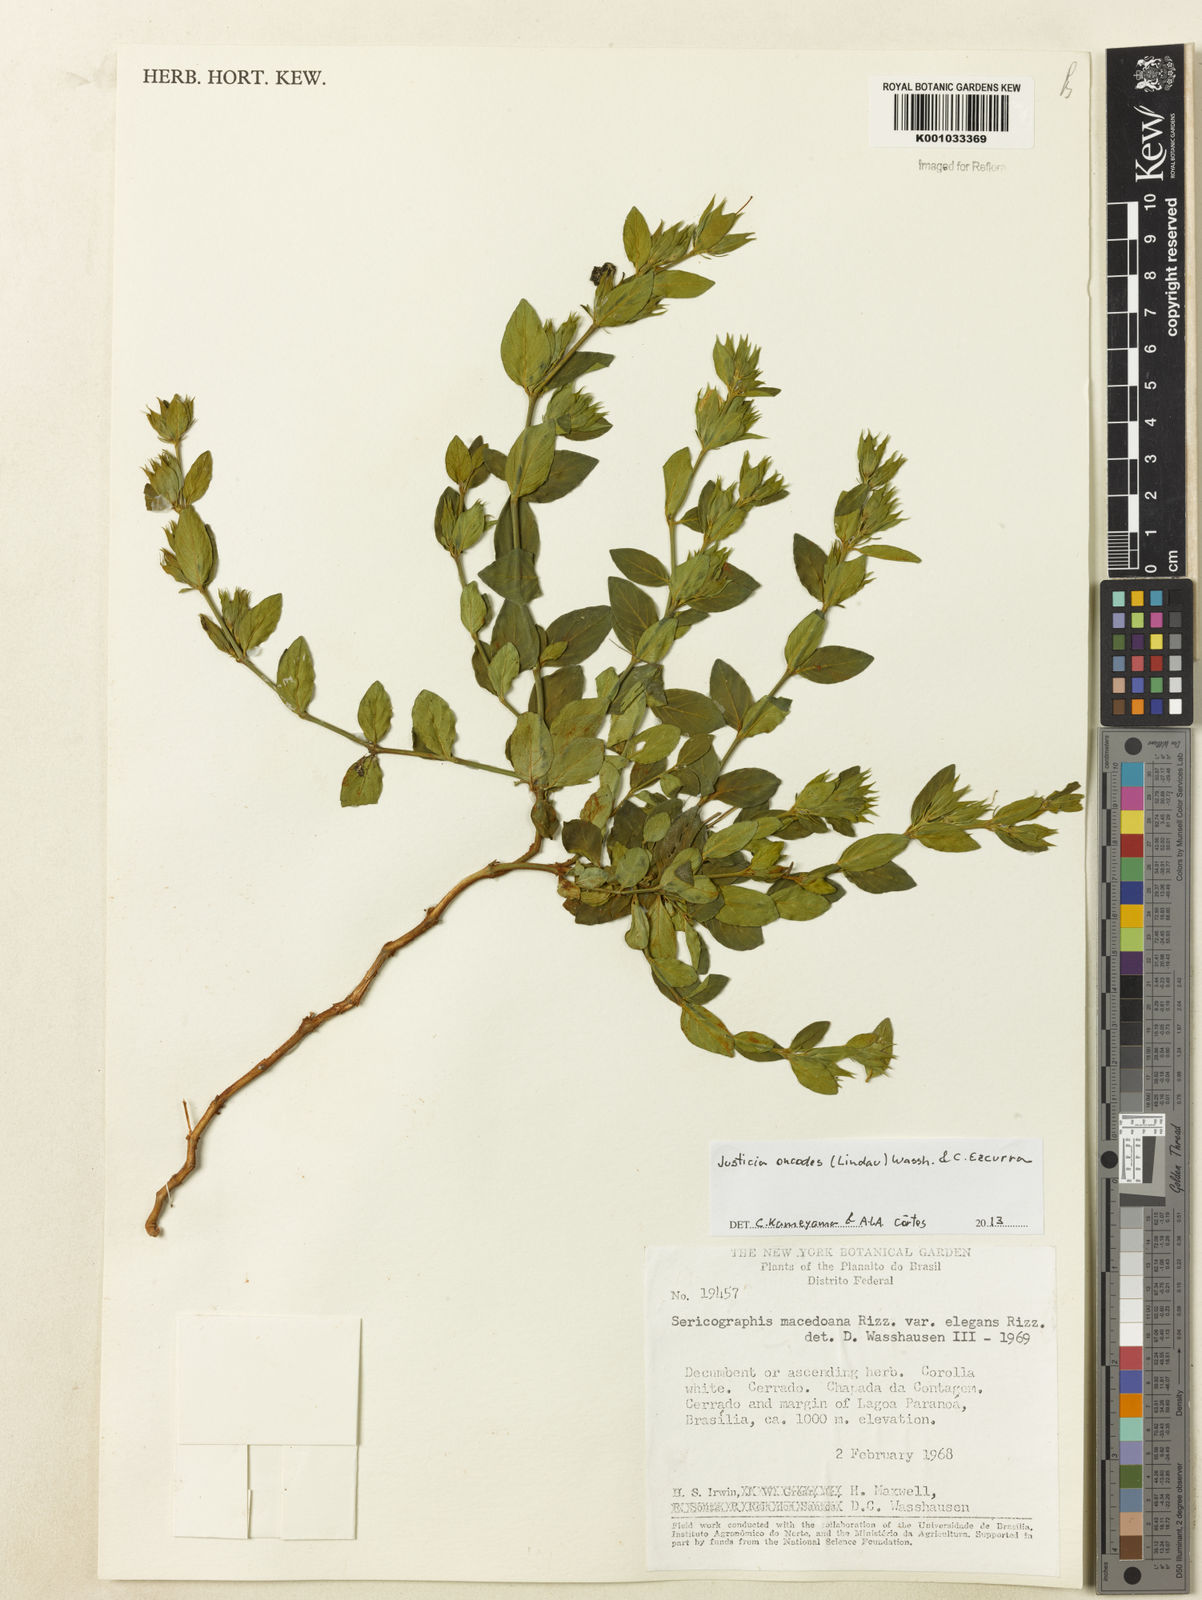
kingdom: Plantae
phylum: Tracheophyta
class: Magnoliopsida
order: Lamiales
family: Acanthaceae
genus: Justicia
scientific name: Justicia oncodes
